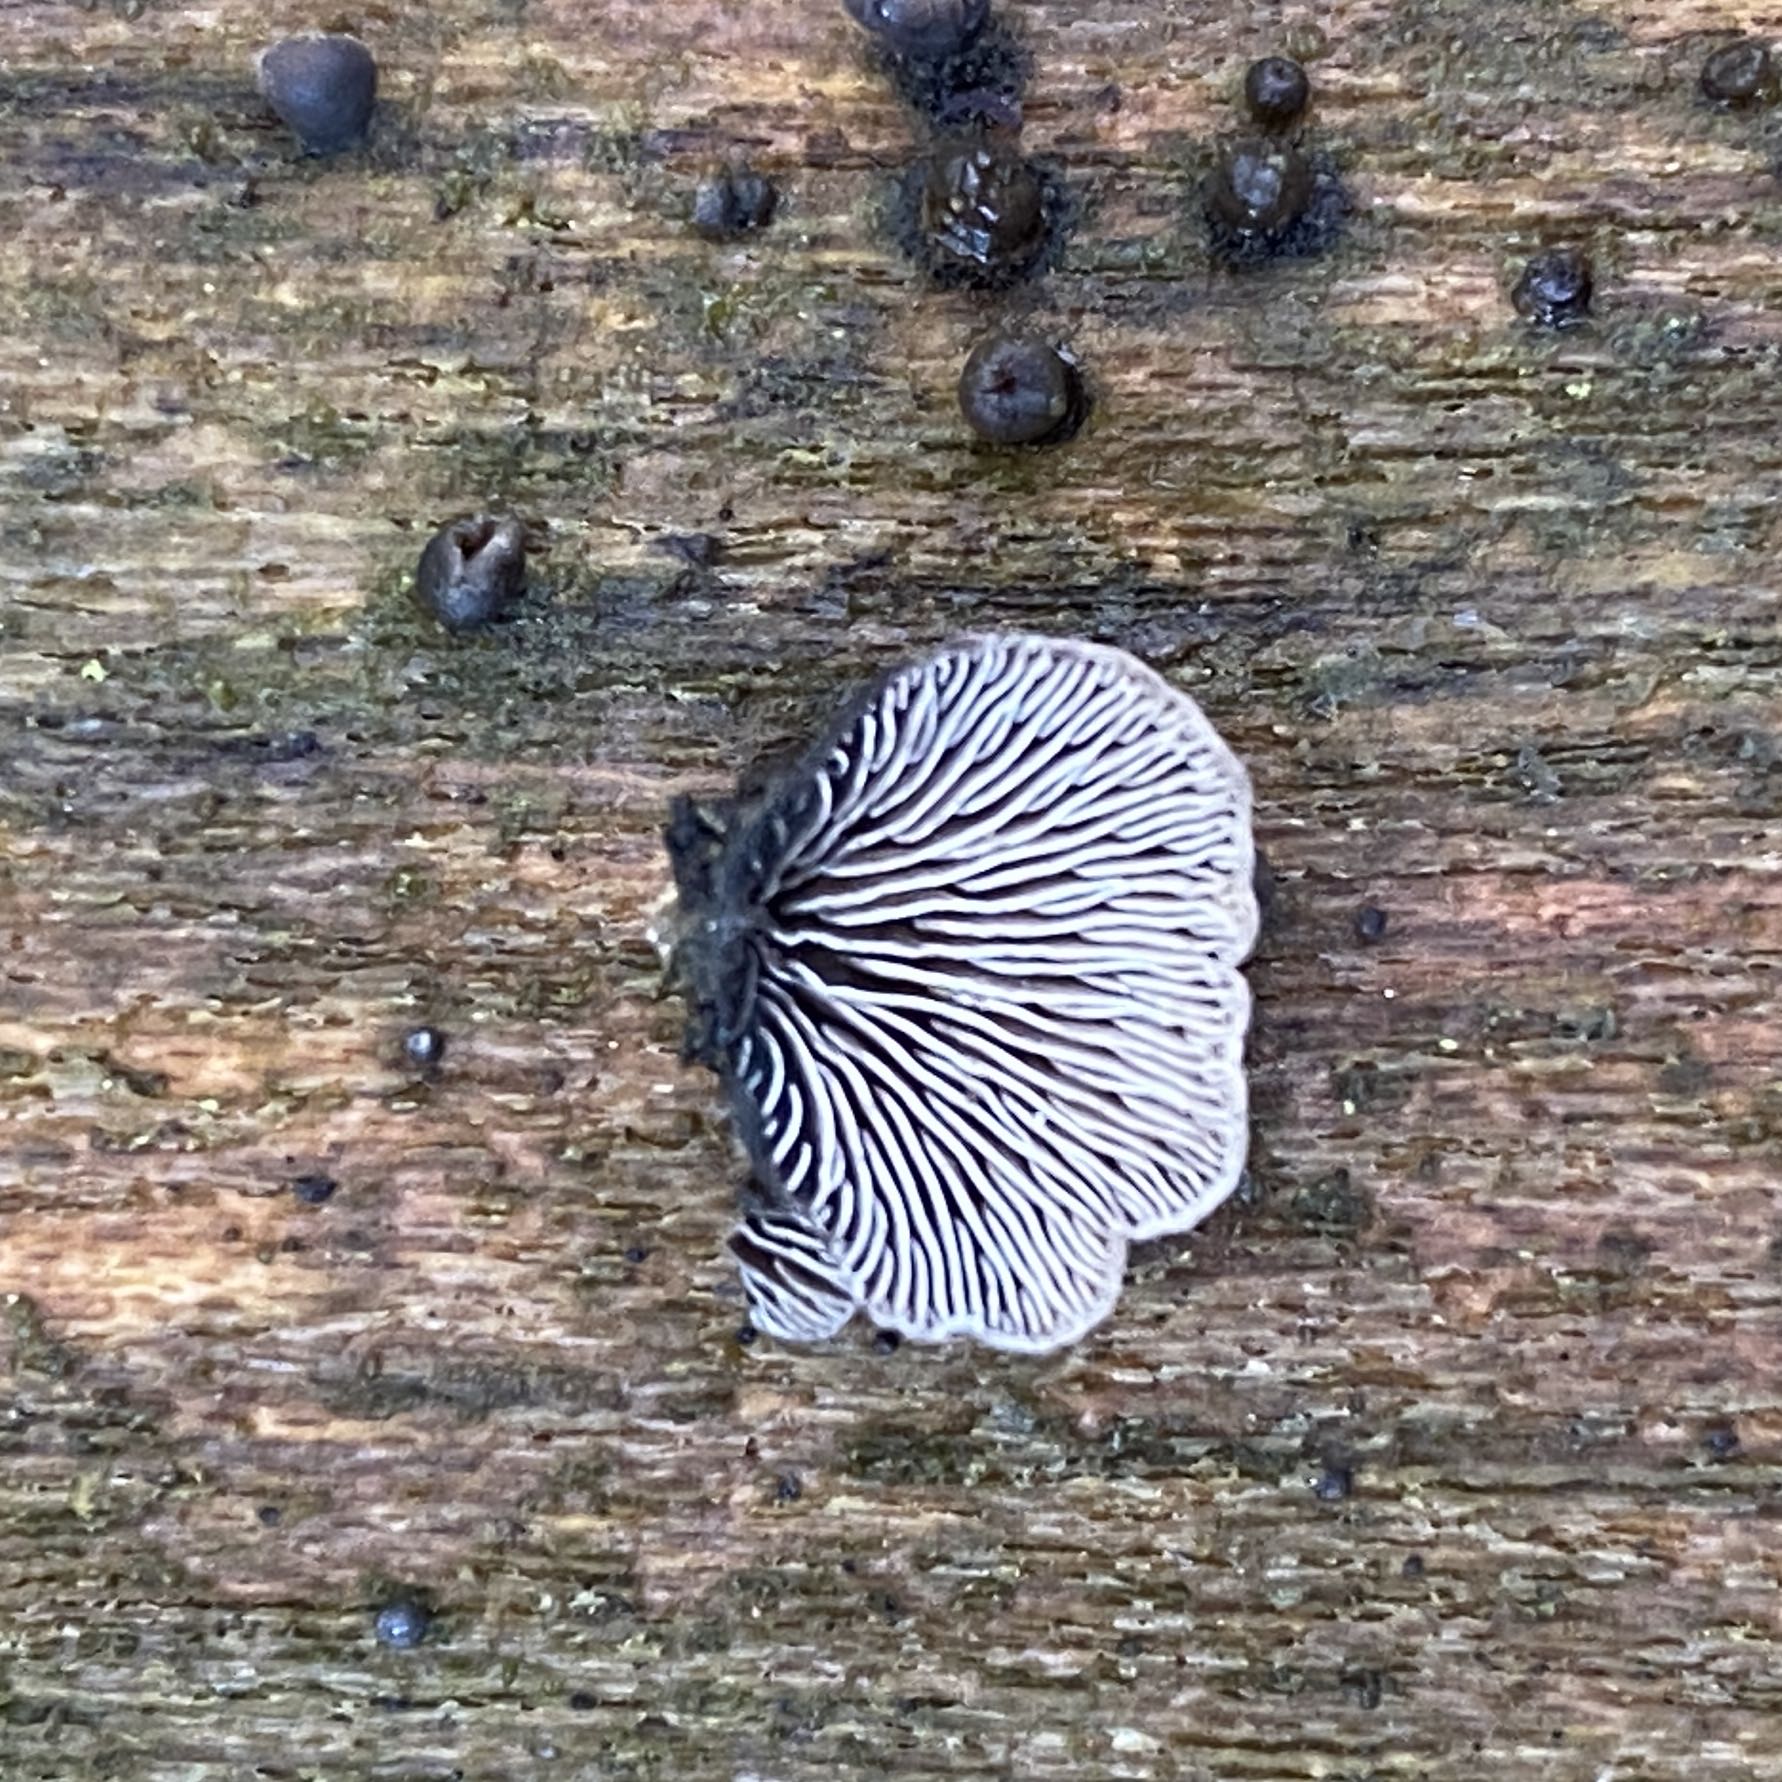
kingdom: Fungi
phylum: Basidiomycota
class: Agaricomycetes
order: Agaricales
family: Pleurotaceae
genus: Resupinatus
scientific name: Resupinatus trichotis
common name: mørkfiltet barkhat
